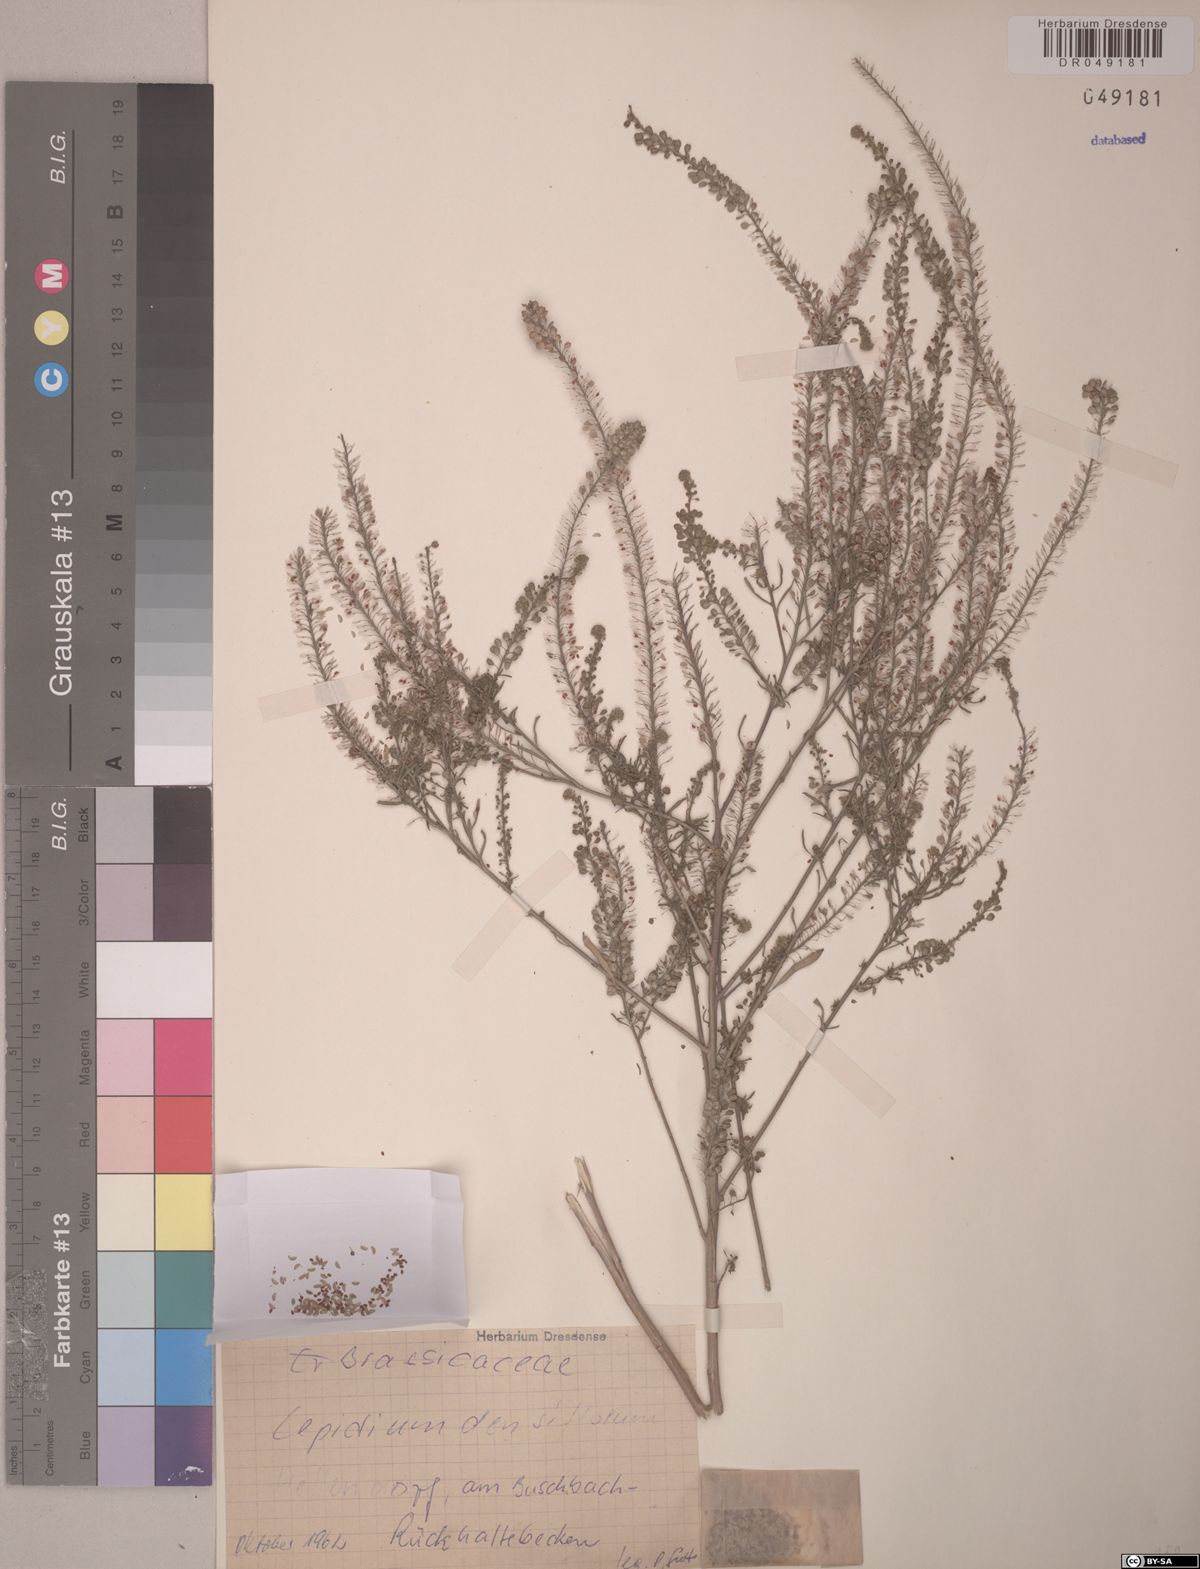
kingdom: Plantae
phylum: Tracheophyta
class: Magnoliopsida
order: Brassicales
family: Brassicaceae
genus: Lepidium
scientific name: Lepidium densiflorum
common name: Miner's pepperwort
